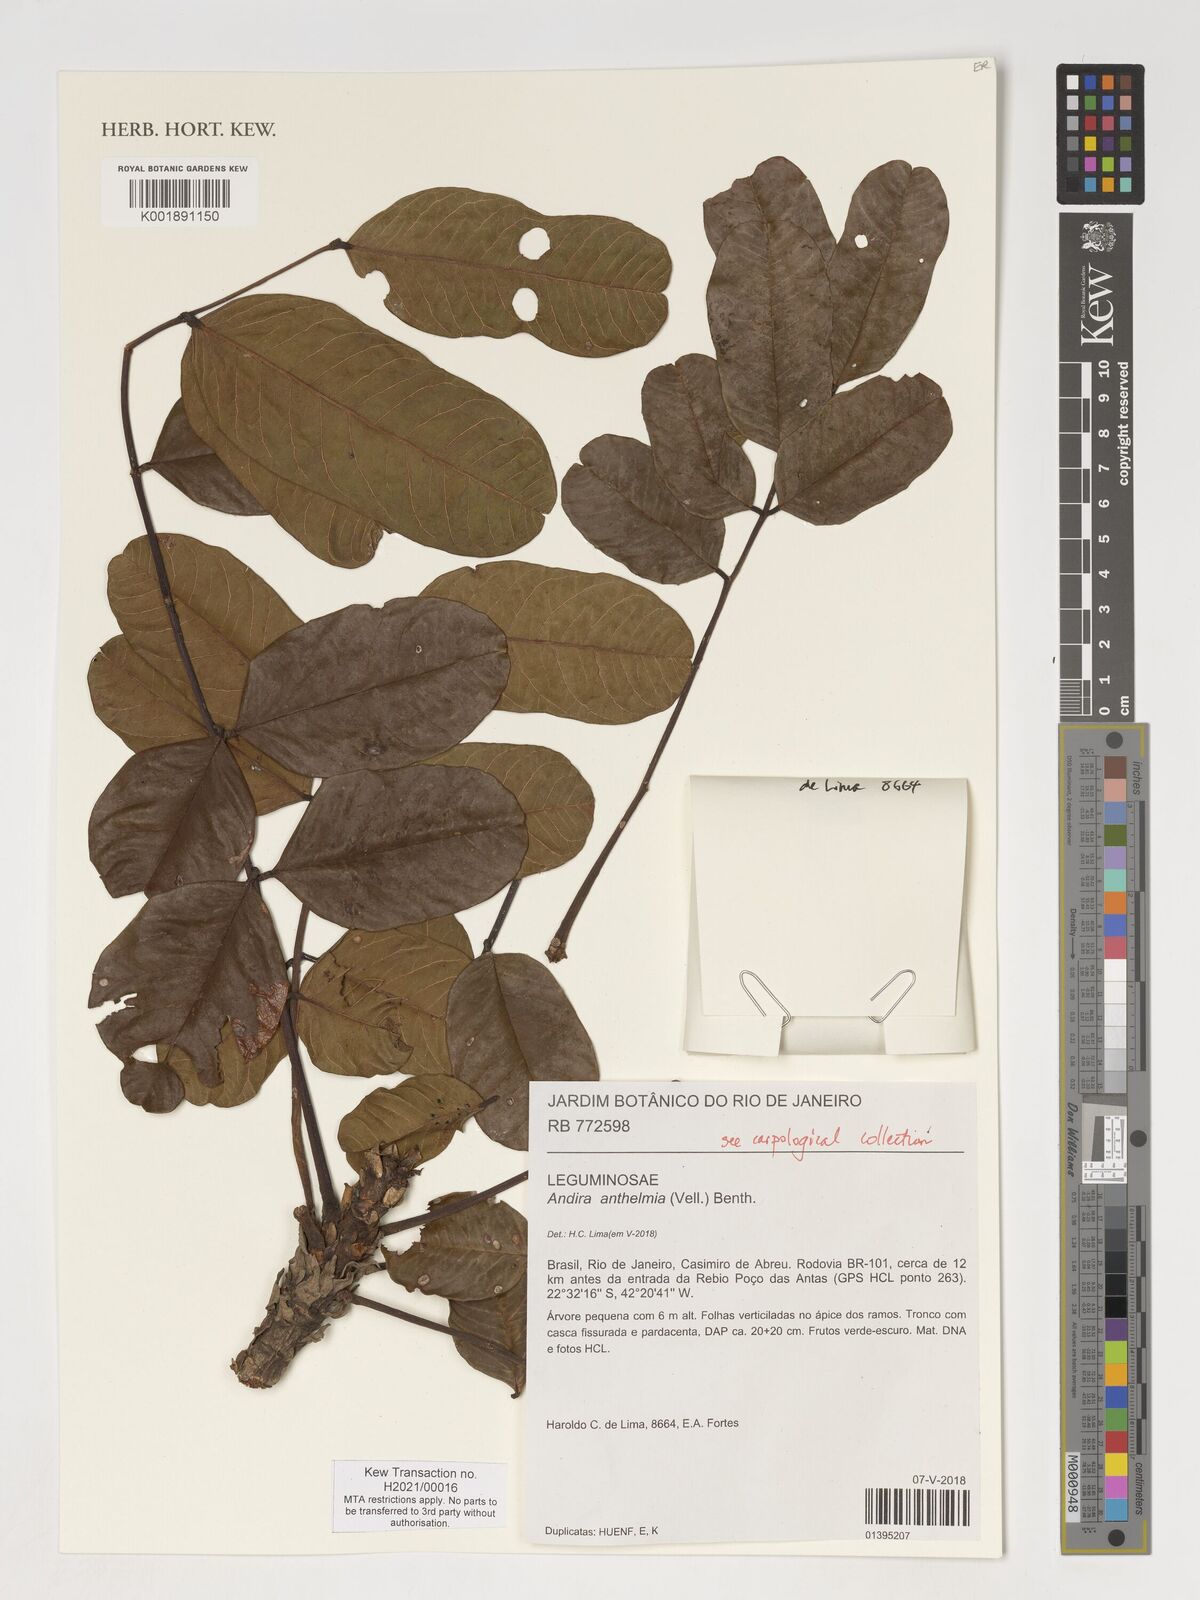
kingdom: Plantae
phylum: Tracheophyta
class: Magnoliopsida
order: Fabales
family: Fabaceae
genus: Andira
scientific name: Andira anthelmia
